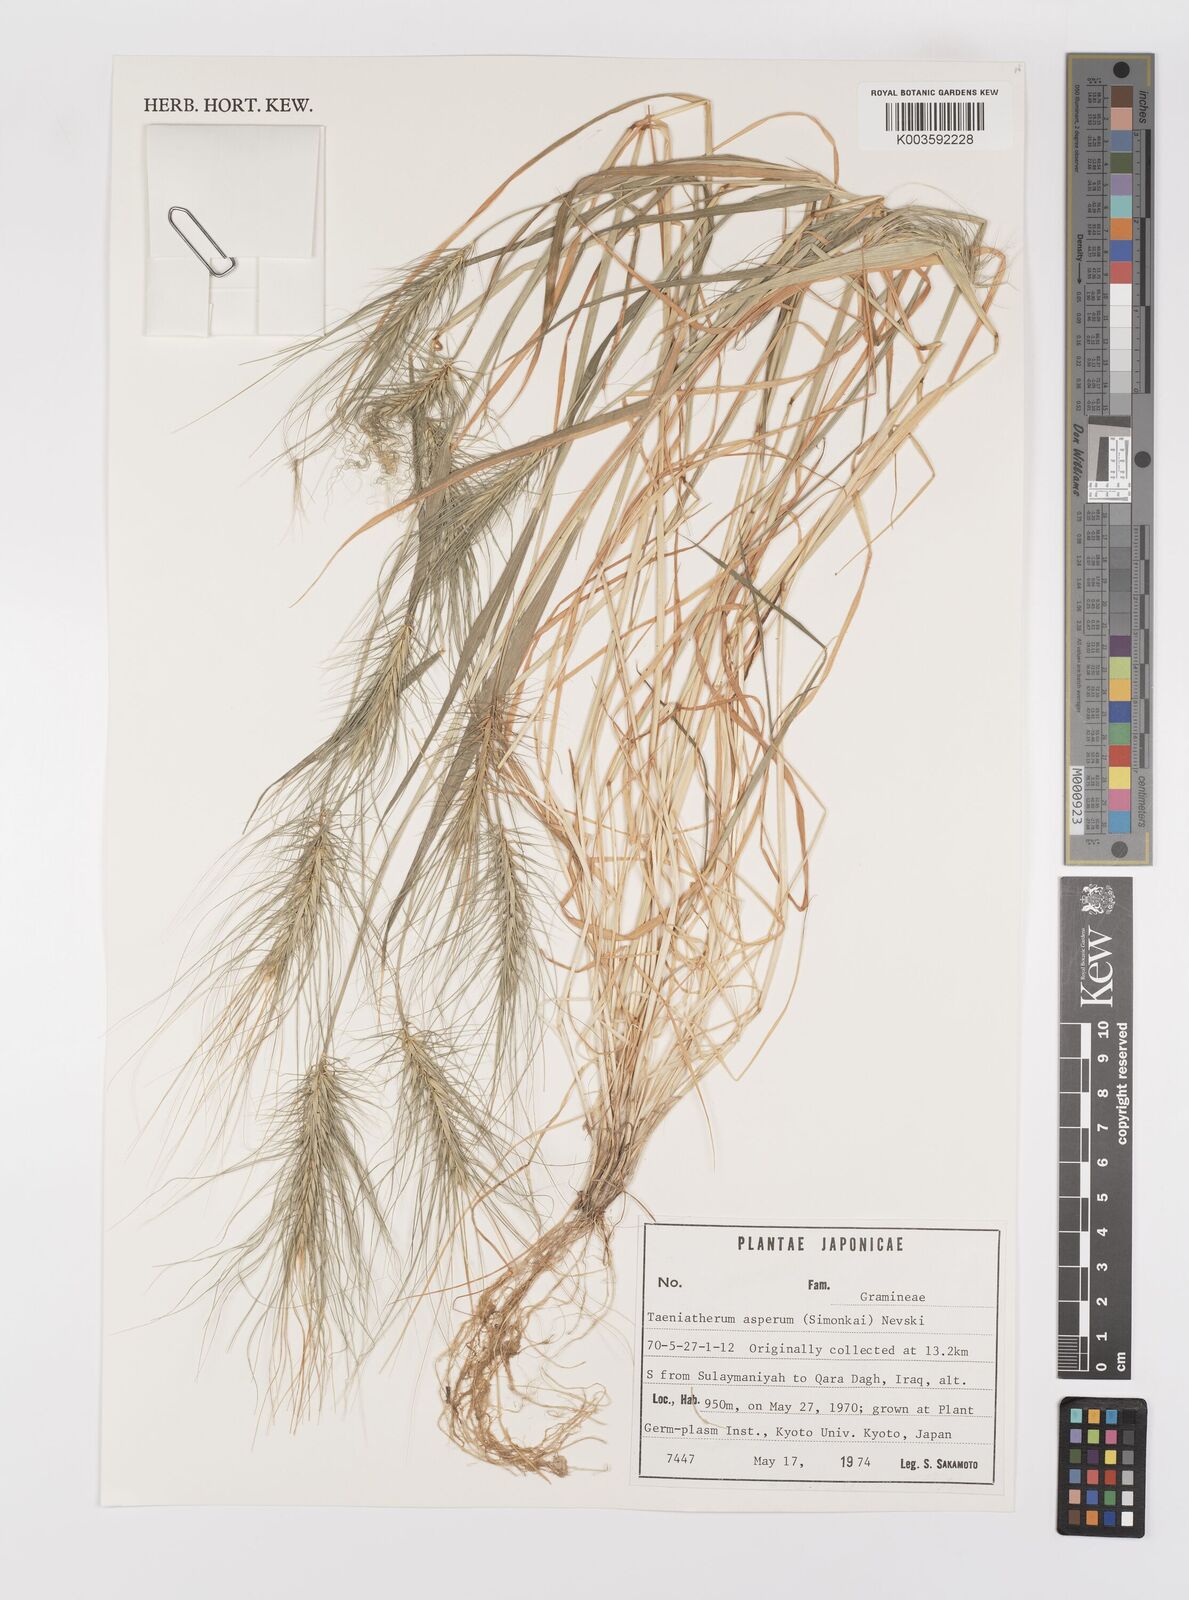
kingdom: Plantae
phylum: Tracheophyta
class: Liliopsida
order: Poales
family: Poaceae
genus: Taeniatherum
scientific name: Taeniatherum caput-medusae
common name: Medusahead
